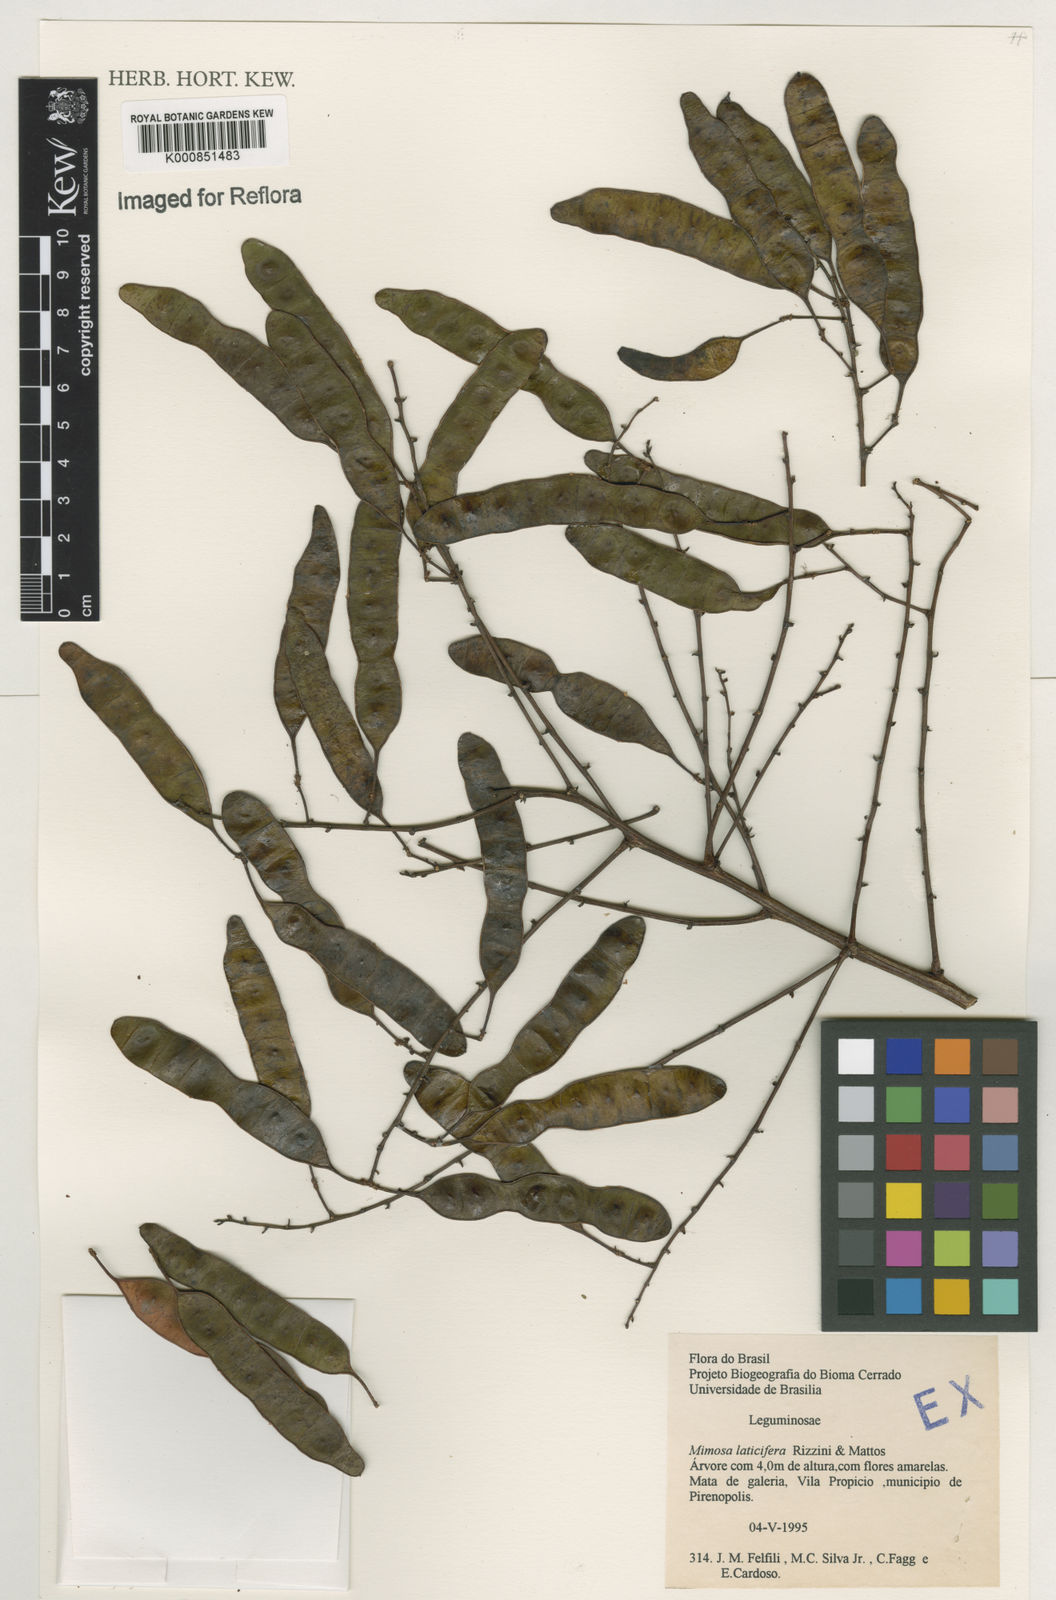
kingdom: Plantae
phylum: Tracheophyta
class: Magnoliopsida
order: Fabales
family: Fabaceae
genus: Mimosa
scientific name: Mimosa laticifera
